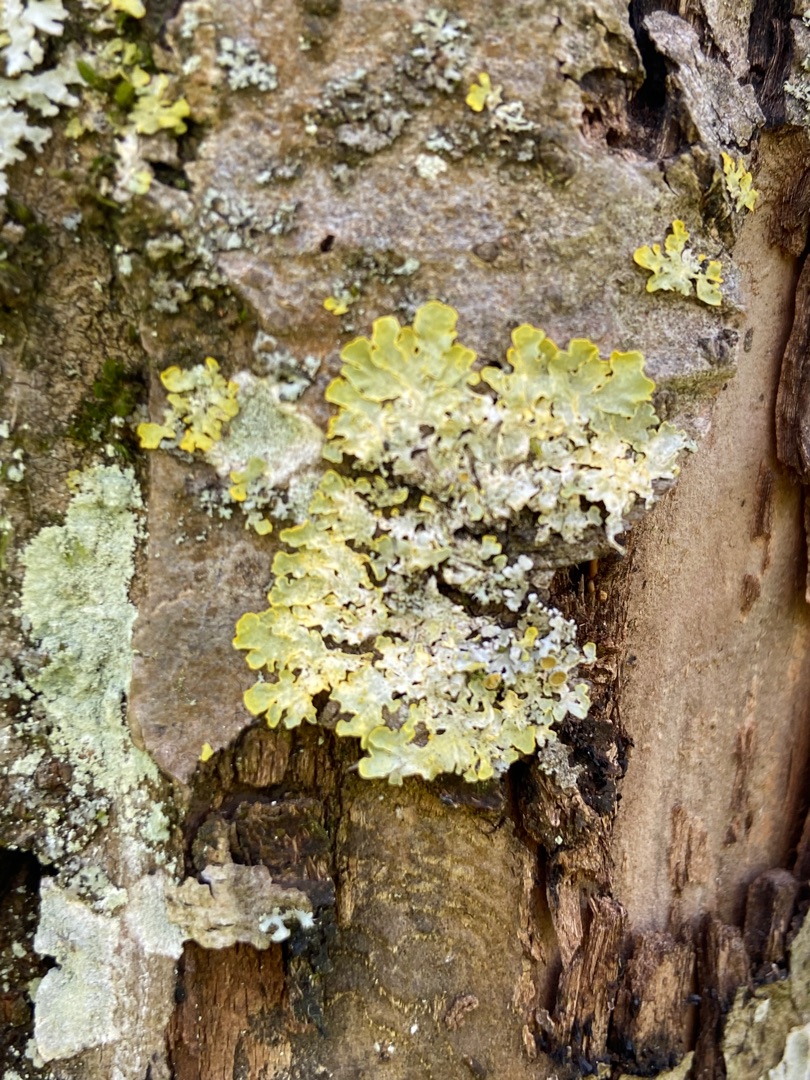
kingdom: Fungi
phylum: Ascomycota
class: Lecanoromycetes
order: Teloschistales
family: Teloschistaceae
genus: Xanthoria
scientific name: Xanthoria parietina
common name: Almindelig væggelav
